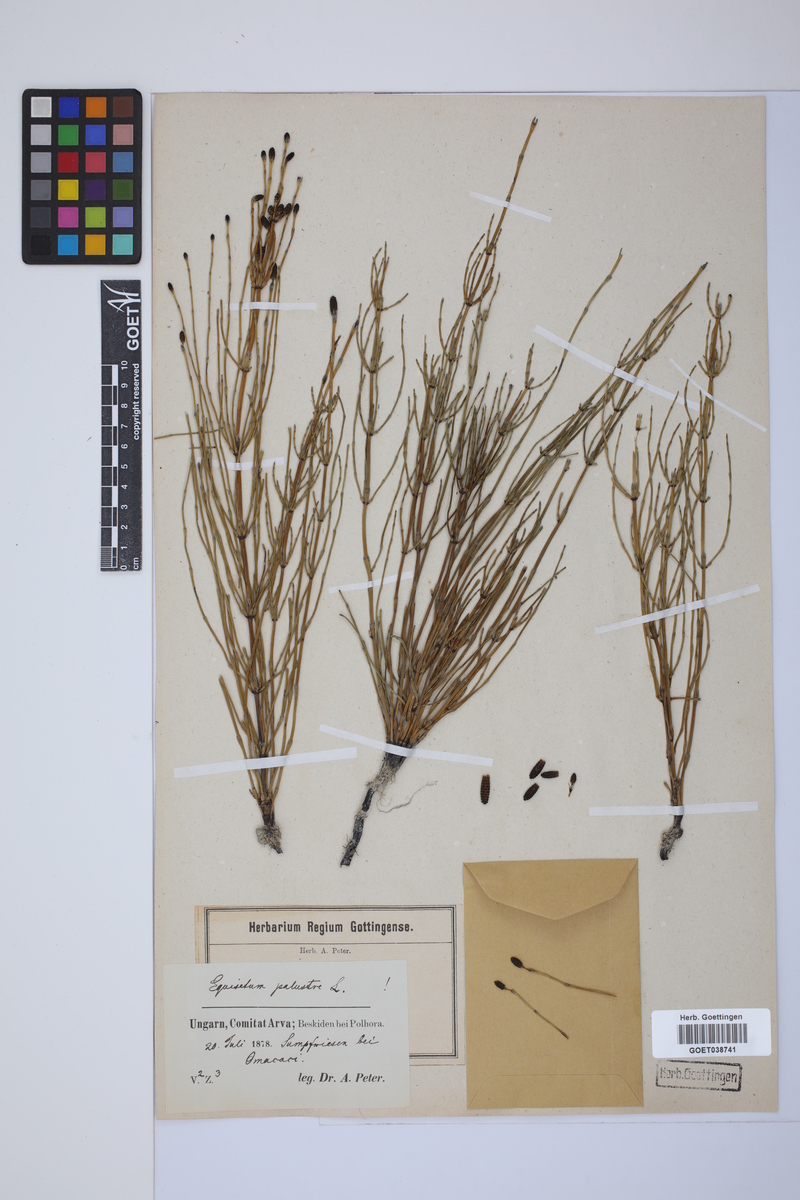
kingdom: Plantae
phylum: Tracheophyta
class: Polypodiopsida
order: Equisetales
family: Equisetaceae
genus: Equisetum
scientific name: Equisetum palustre
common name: Marsh horsetail
